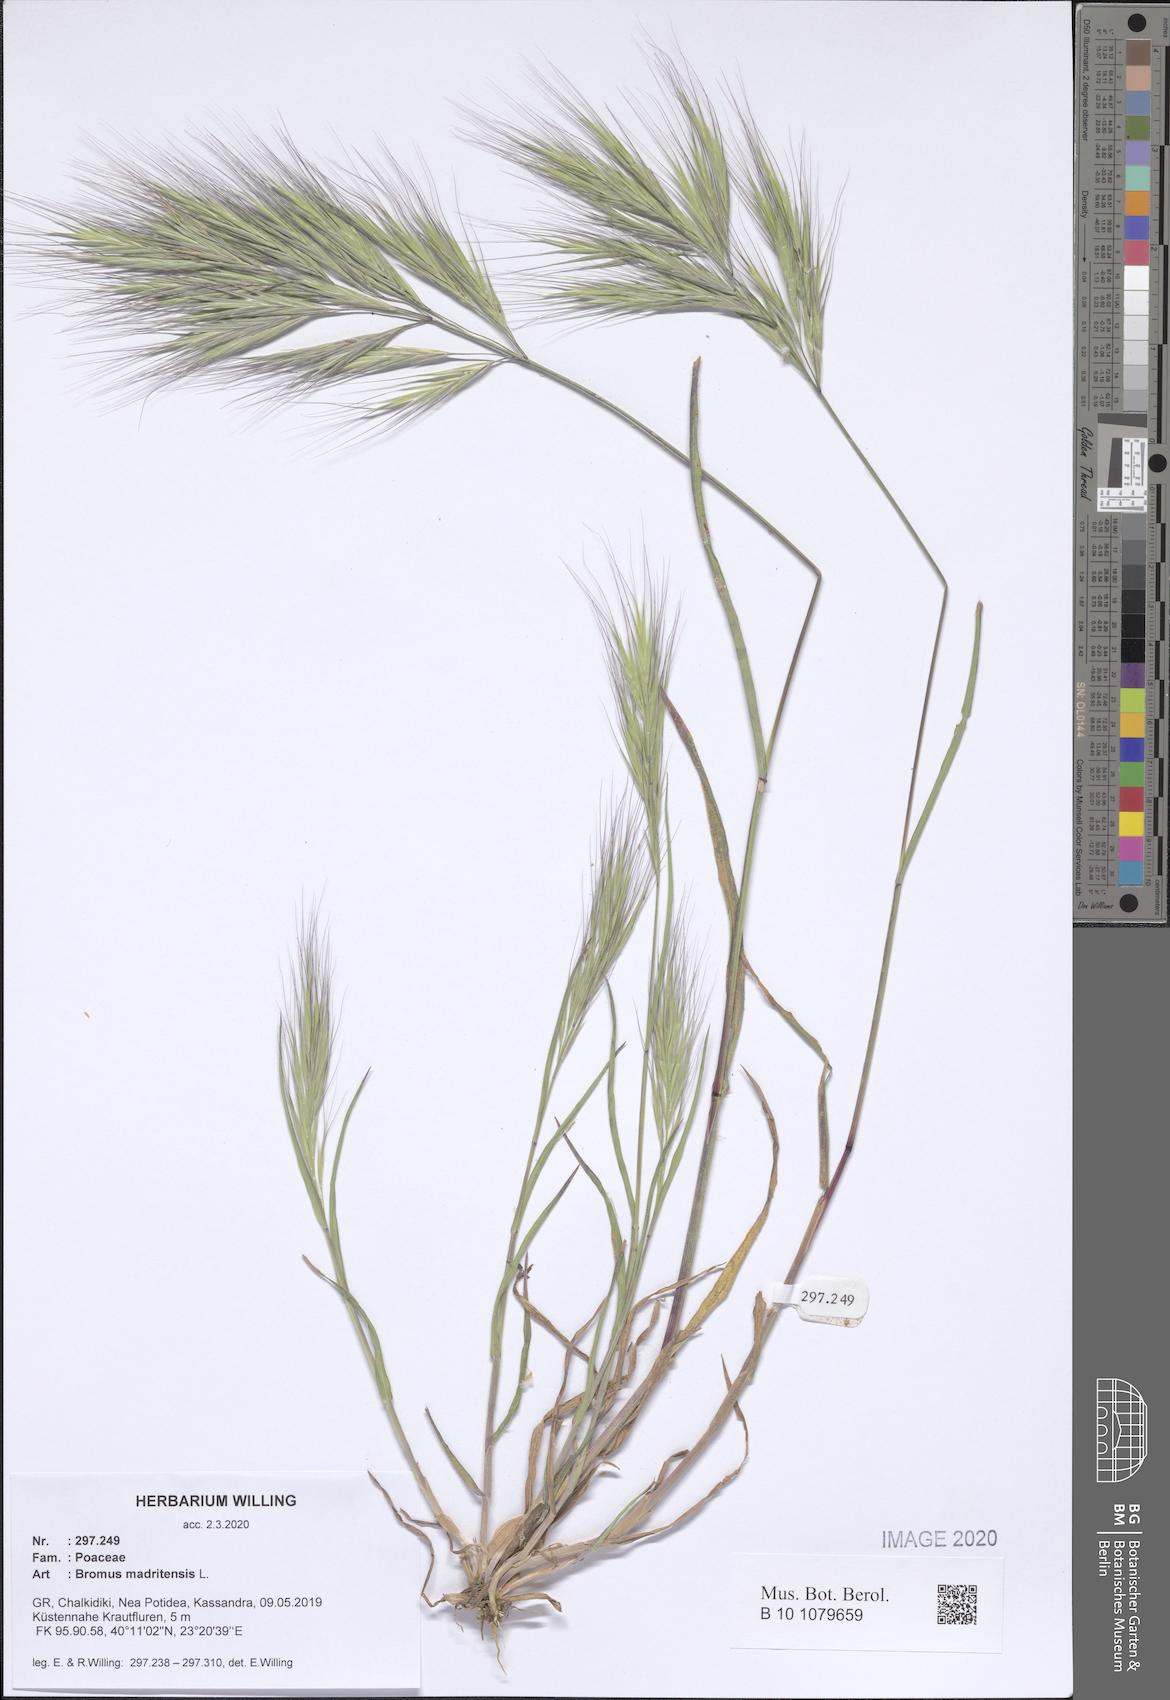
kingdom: Plantae
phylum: Tracheophyta
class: Liliopsida
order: Poales
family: Poaceae
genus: Bromus
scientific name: Bromus madritensis
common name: Compact brome
